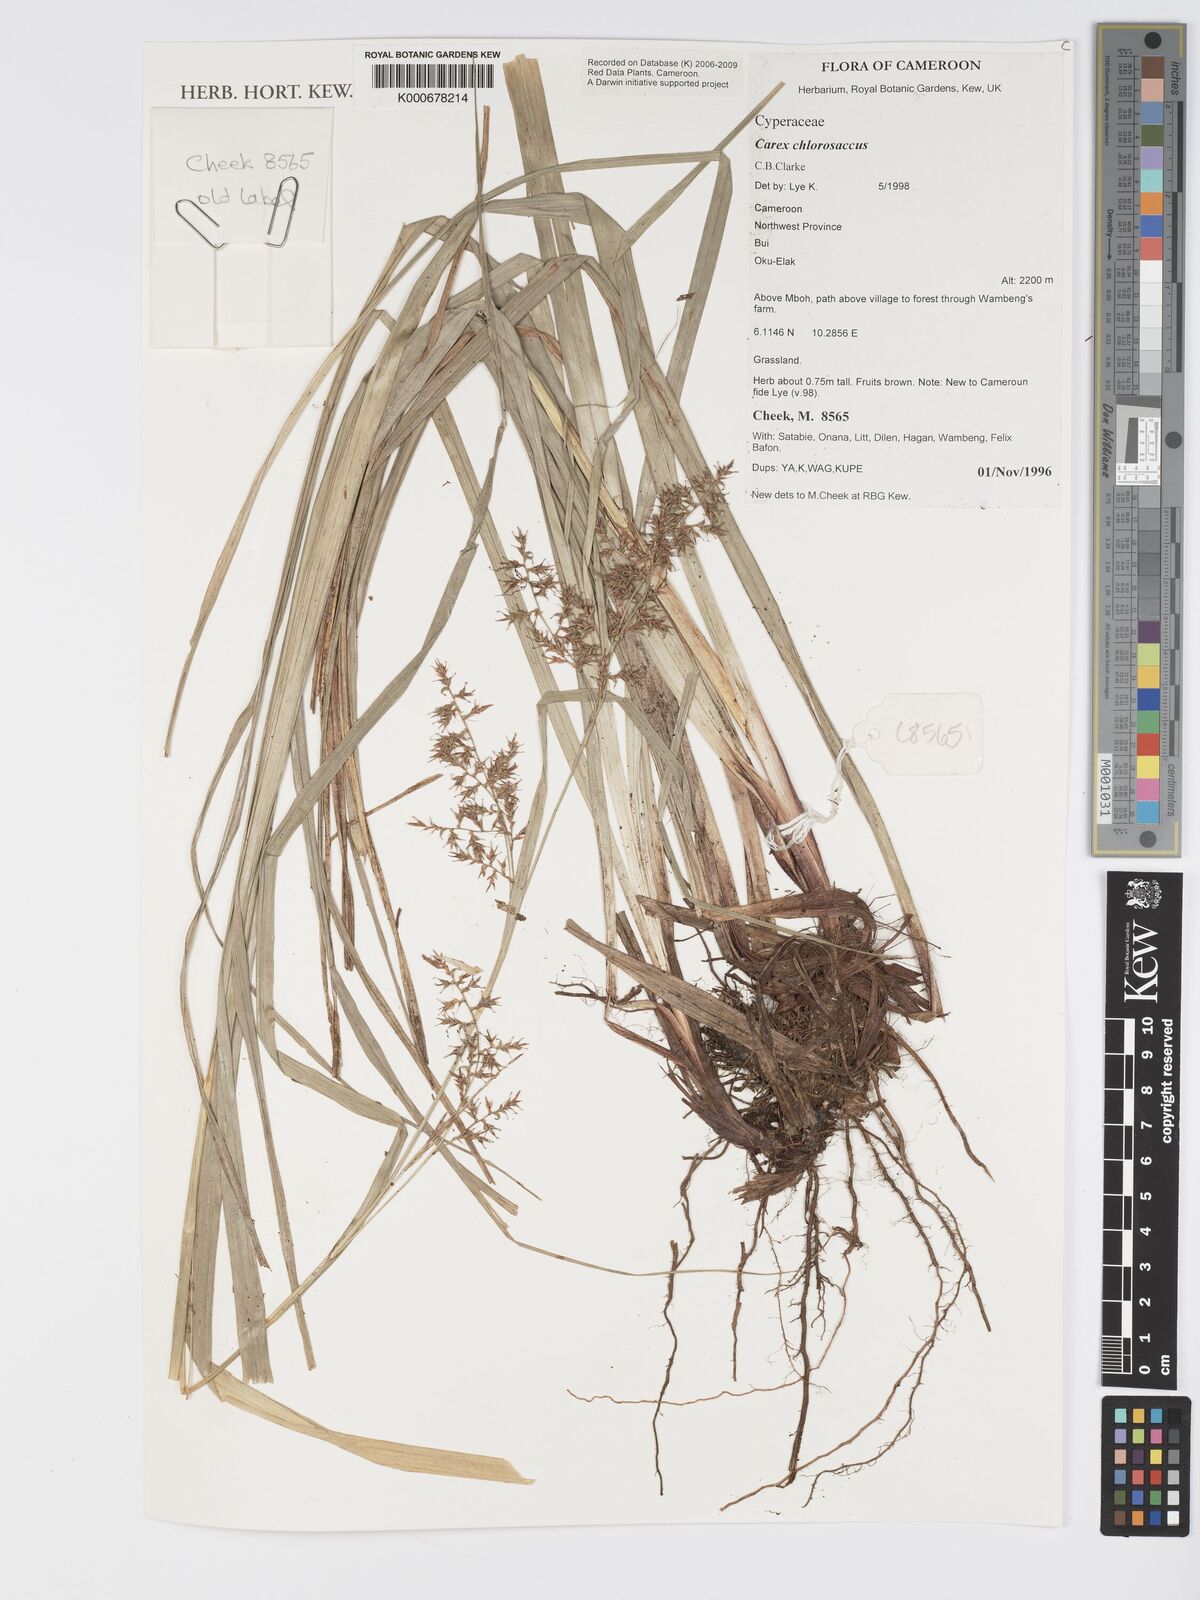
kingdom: Plantae
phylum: Tracheophyta
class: Liliopsida
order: Poales
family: Cyperaceae
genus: Carex
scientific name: Carex chlorosaccus
